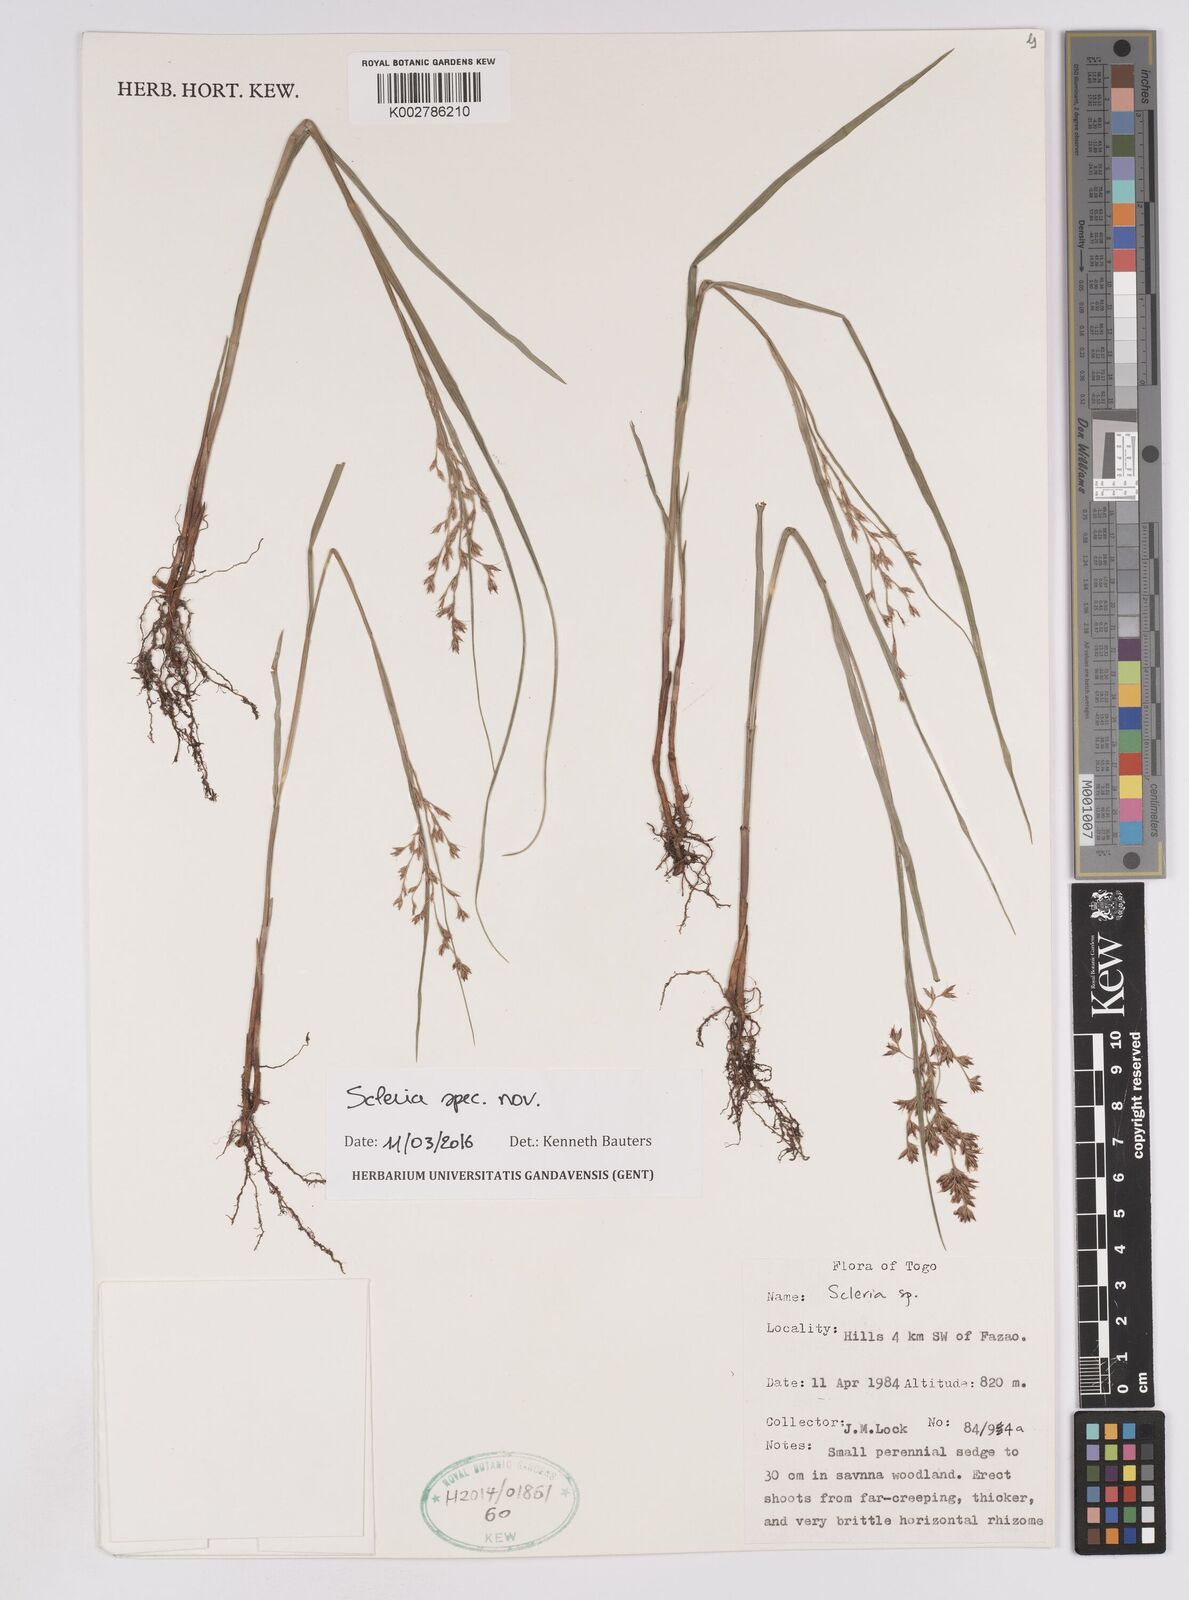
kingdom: Plantae
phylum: Tracheophyta
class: Liliopsida
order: Poales
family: Cyperaceae
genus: Scleria
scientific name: Scleria
